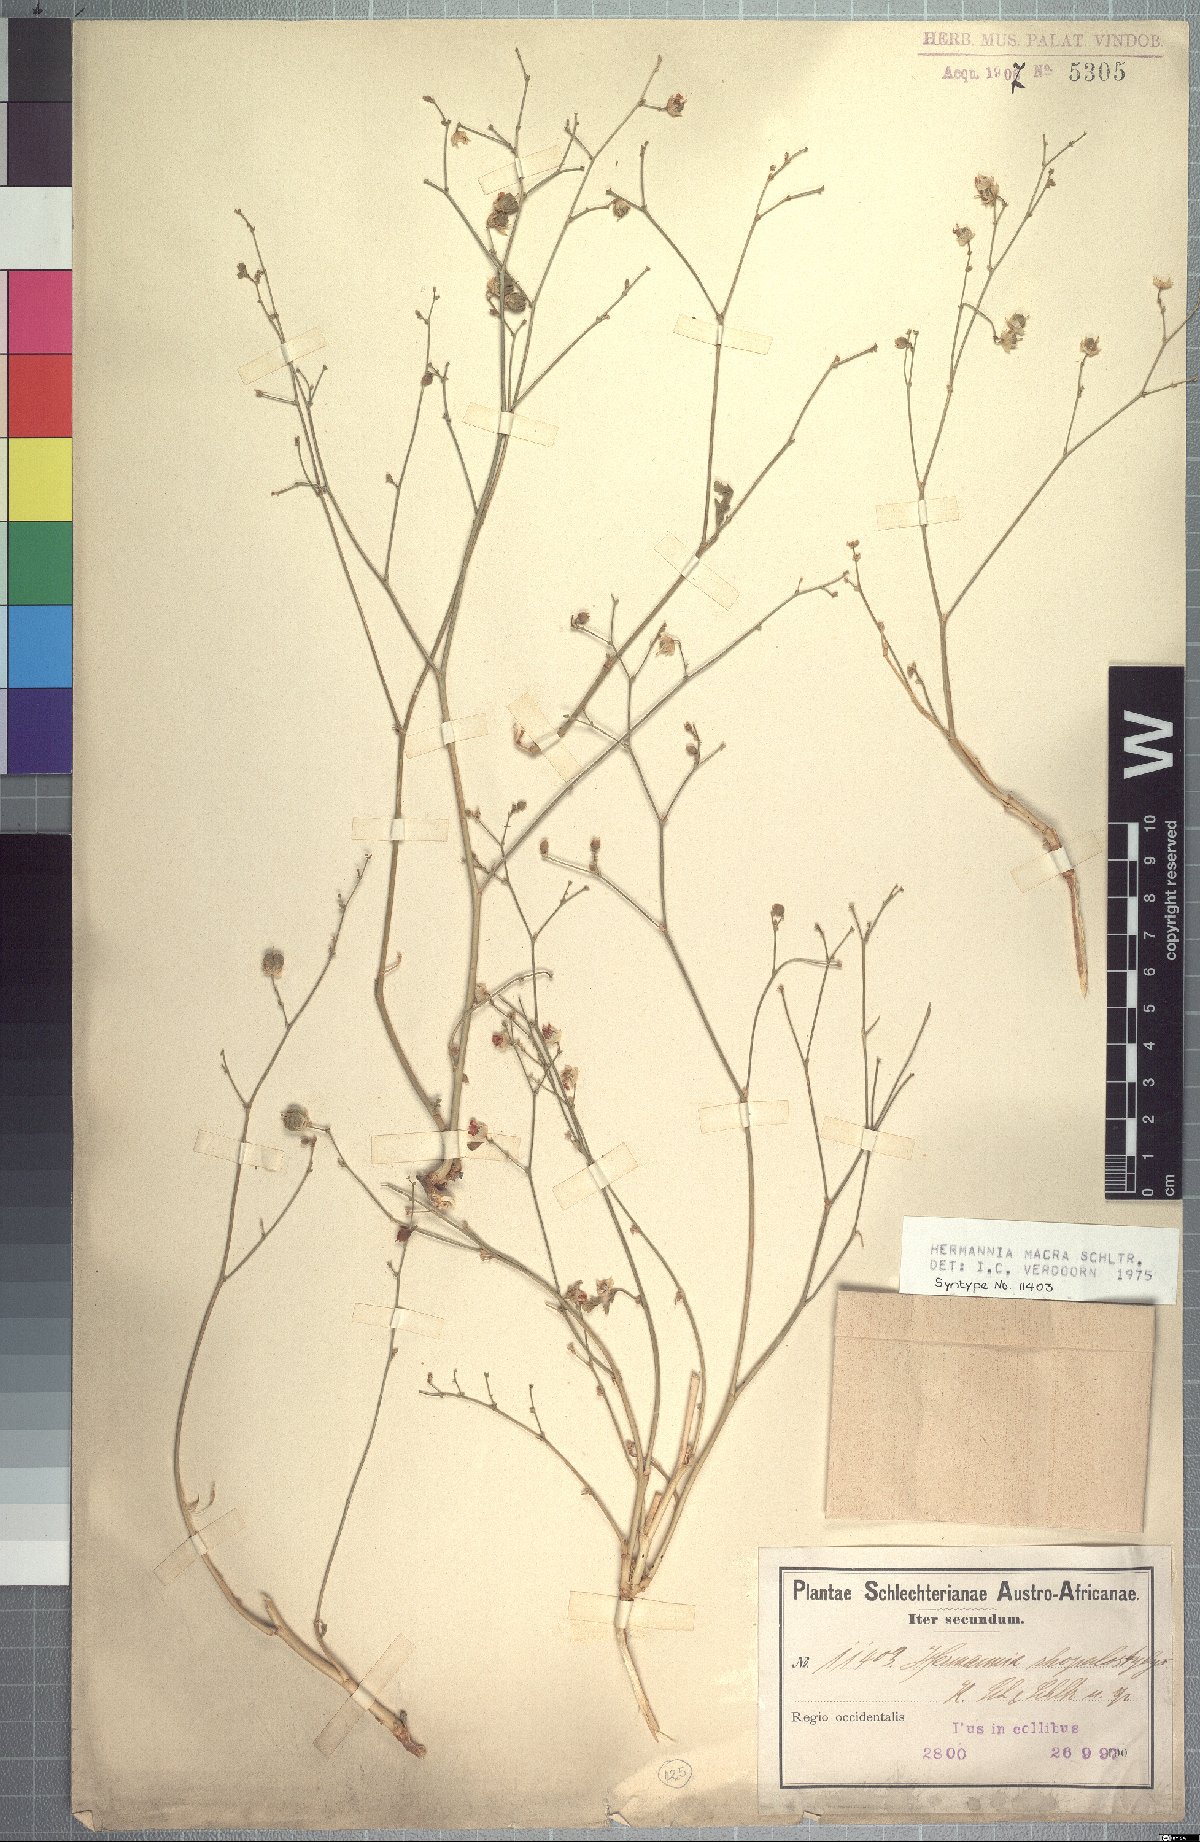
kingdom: Plantae
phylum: Tracheophyta
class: Magnoliopsida
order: Malvales
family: Malvaceae
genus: Hermannia
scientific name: Hermannia macra
